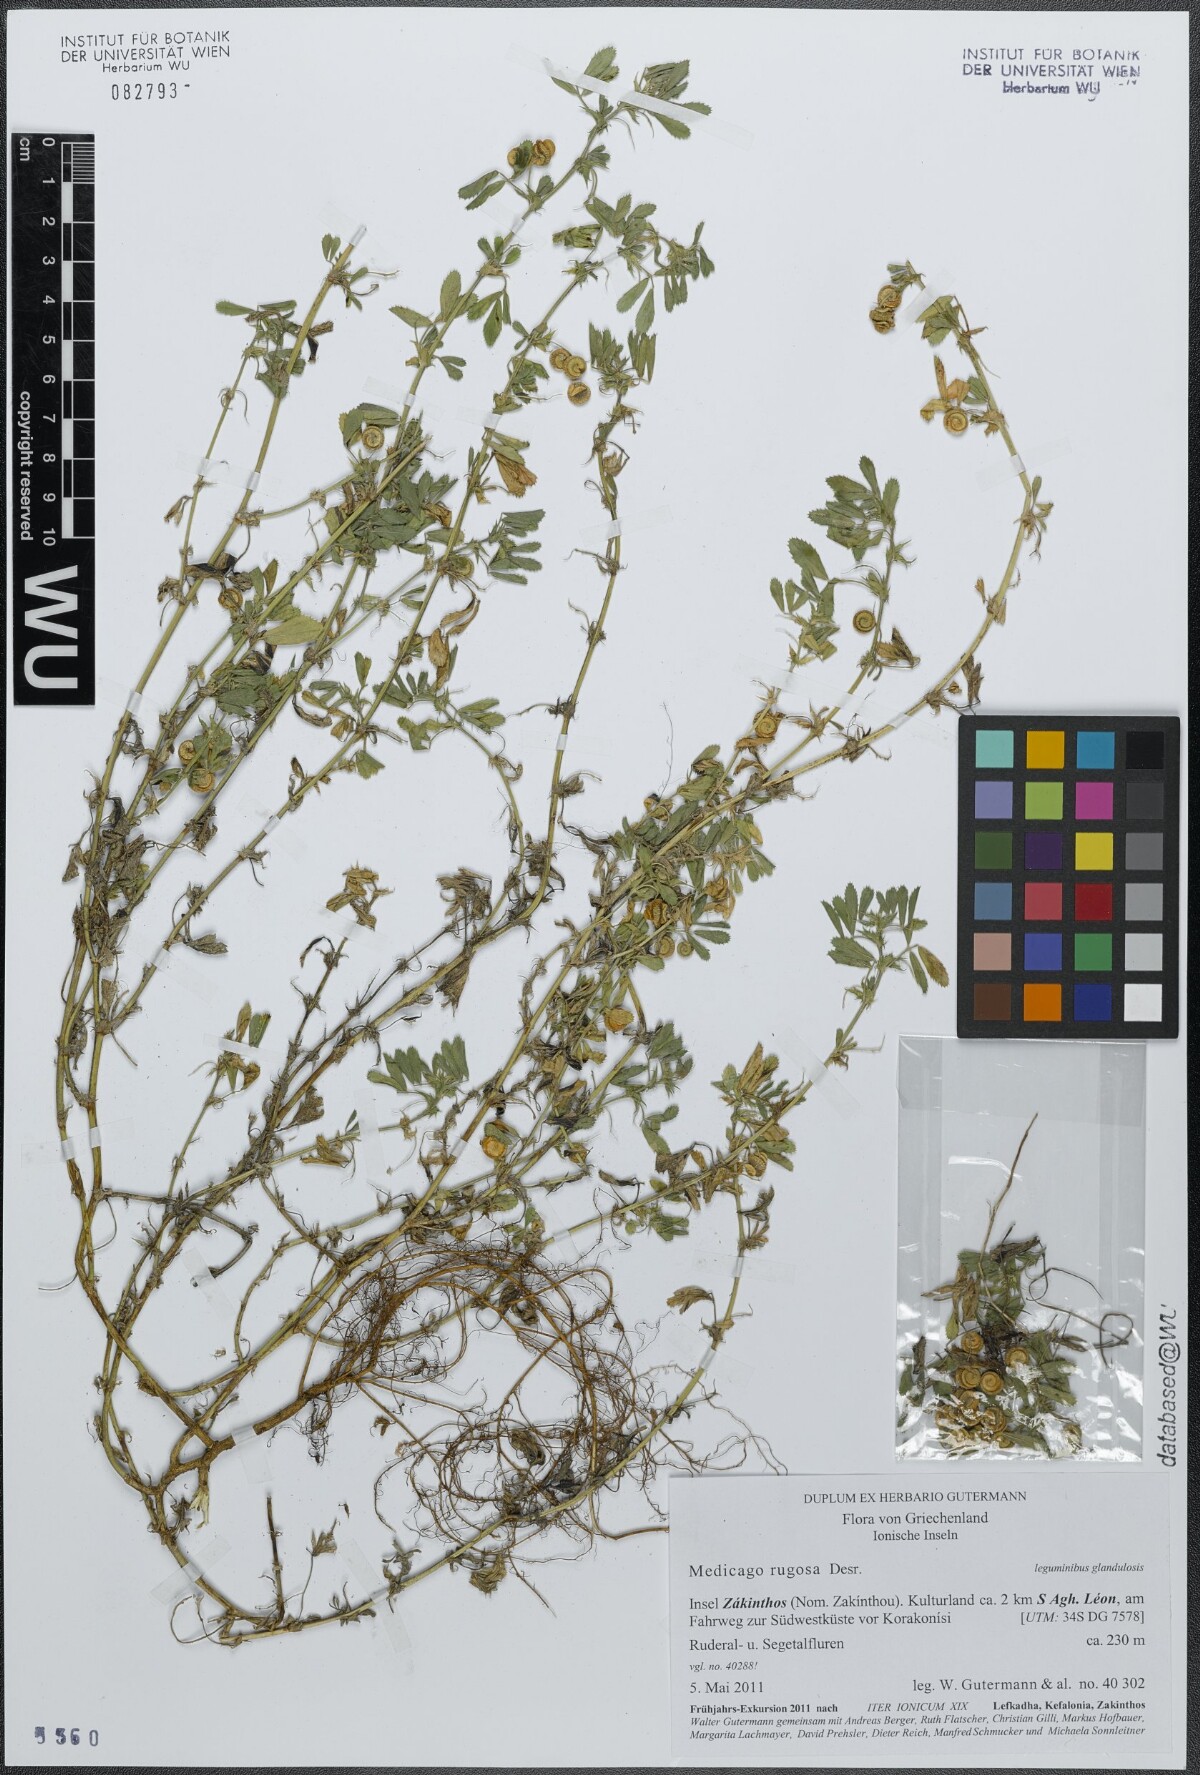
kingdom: Plantae
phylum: Tracheophyta
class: Magnoliopsida
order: Fabales
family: Fabaceae
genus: Medicago
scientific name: Medicago rugosa
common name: Gama medic
